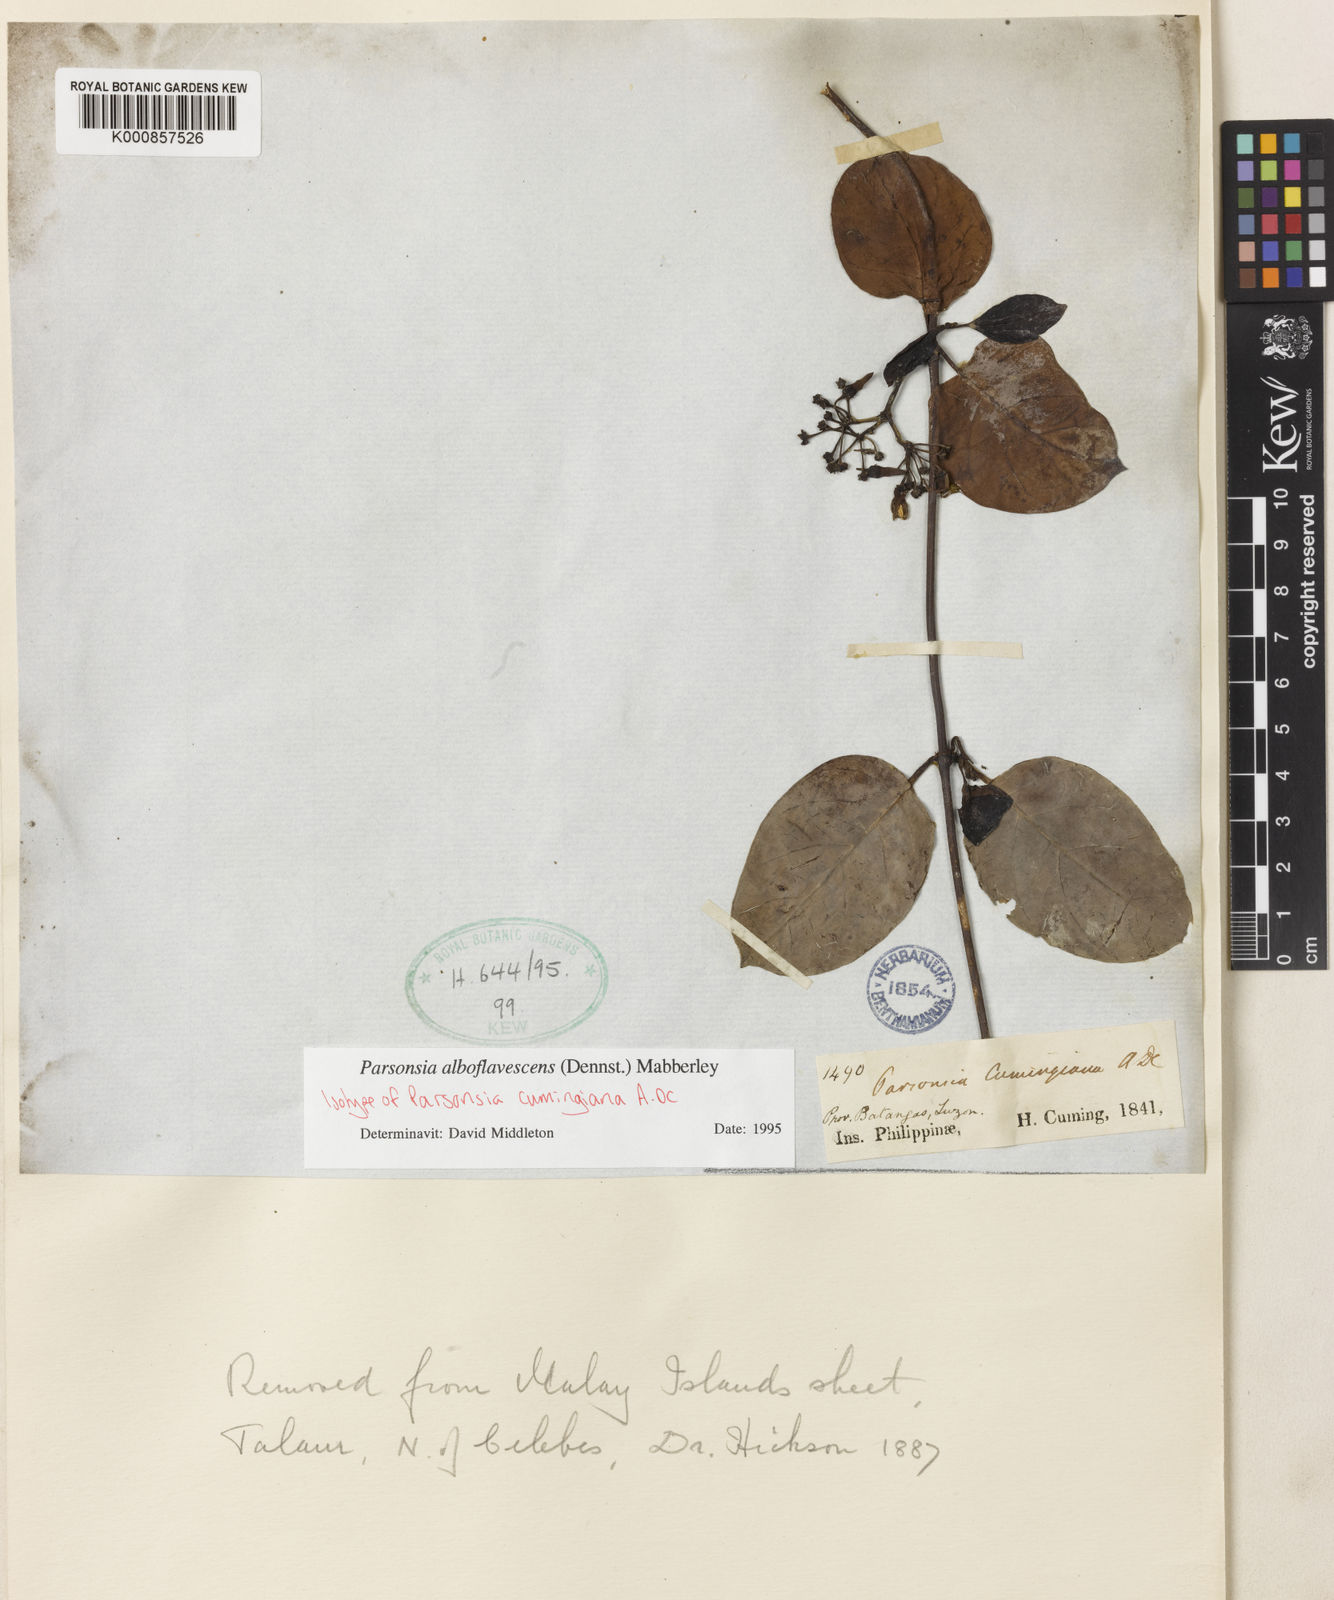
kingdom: Plantae
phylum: Tracheophyta
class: Magnoliopsida
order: Gentianales
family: Apocynaceae
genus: Parsonsia
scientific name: Parsonsia alboflavescens
